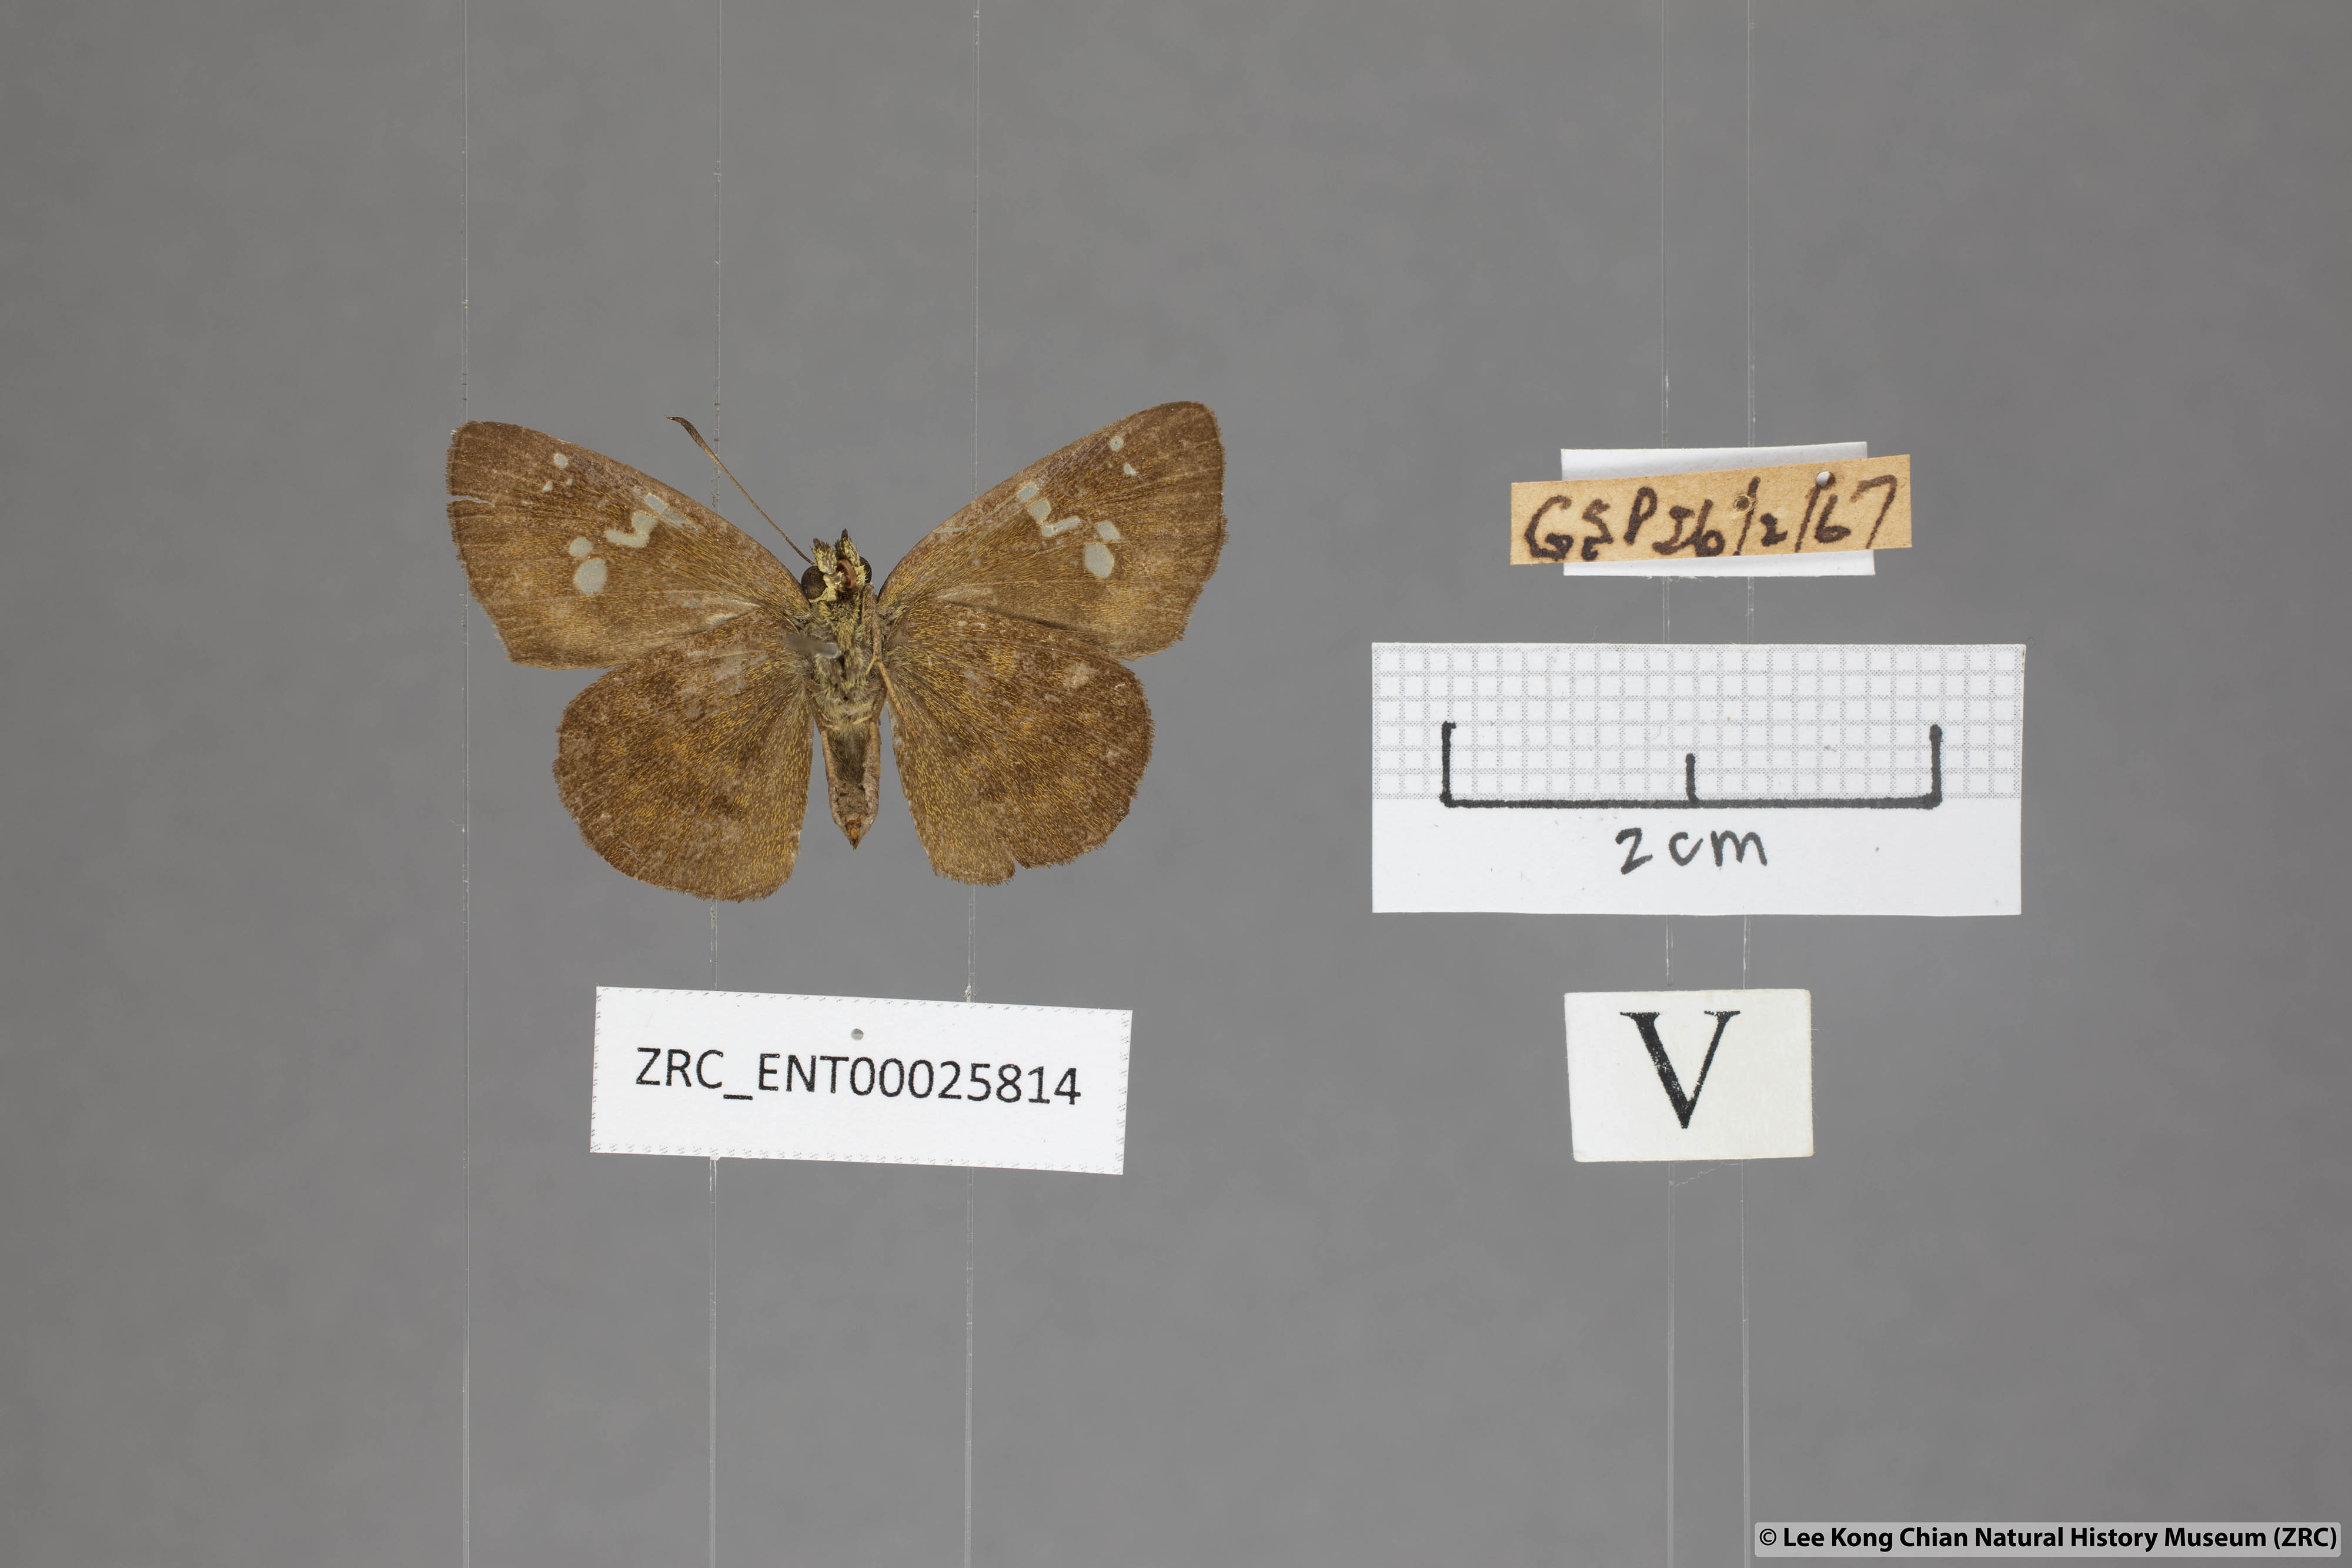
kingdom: Animalia
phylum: Arthropoda
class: Insecta
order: Lepidoptera
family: Hesperiidae
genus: Pseudocoladenia
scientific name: Pseudocoladenia dan
